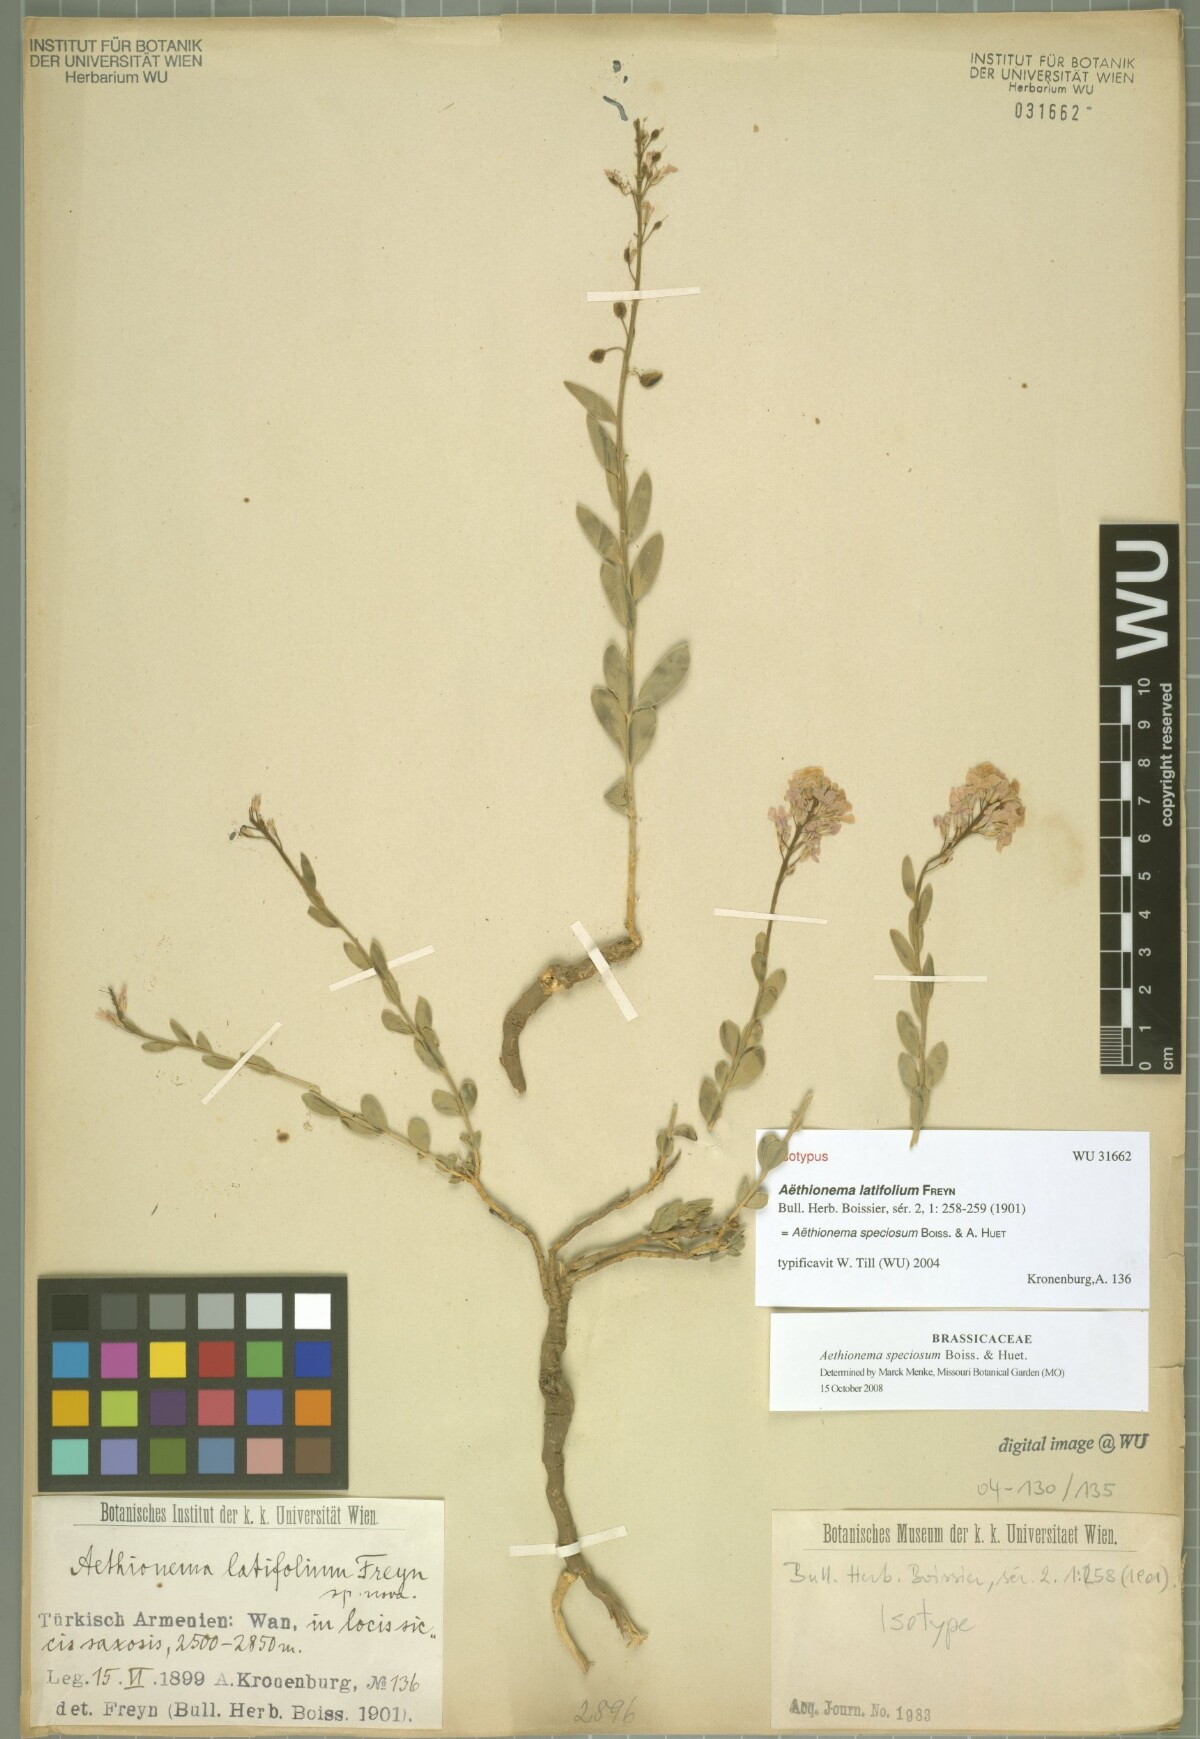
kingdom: Plantae
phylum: Tracheophyta
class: Magnoliopsida
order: Brassicales
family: Brassicaceae
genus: Aethionema
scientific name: Aethionema speciosum
